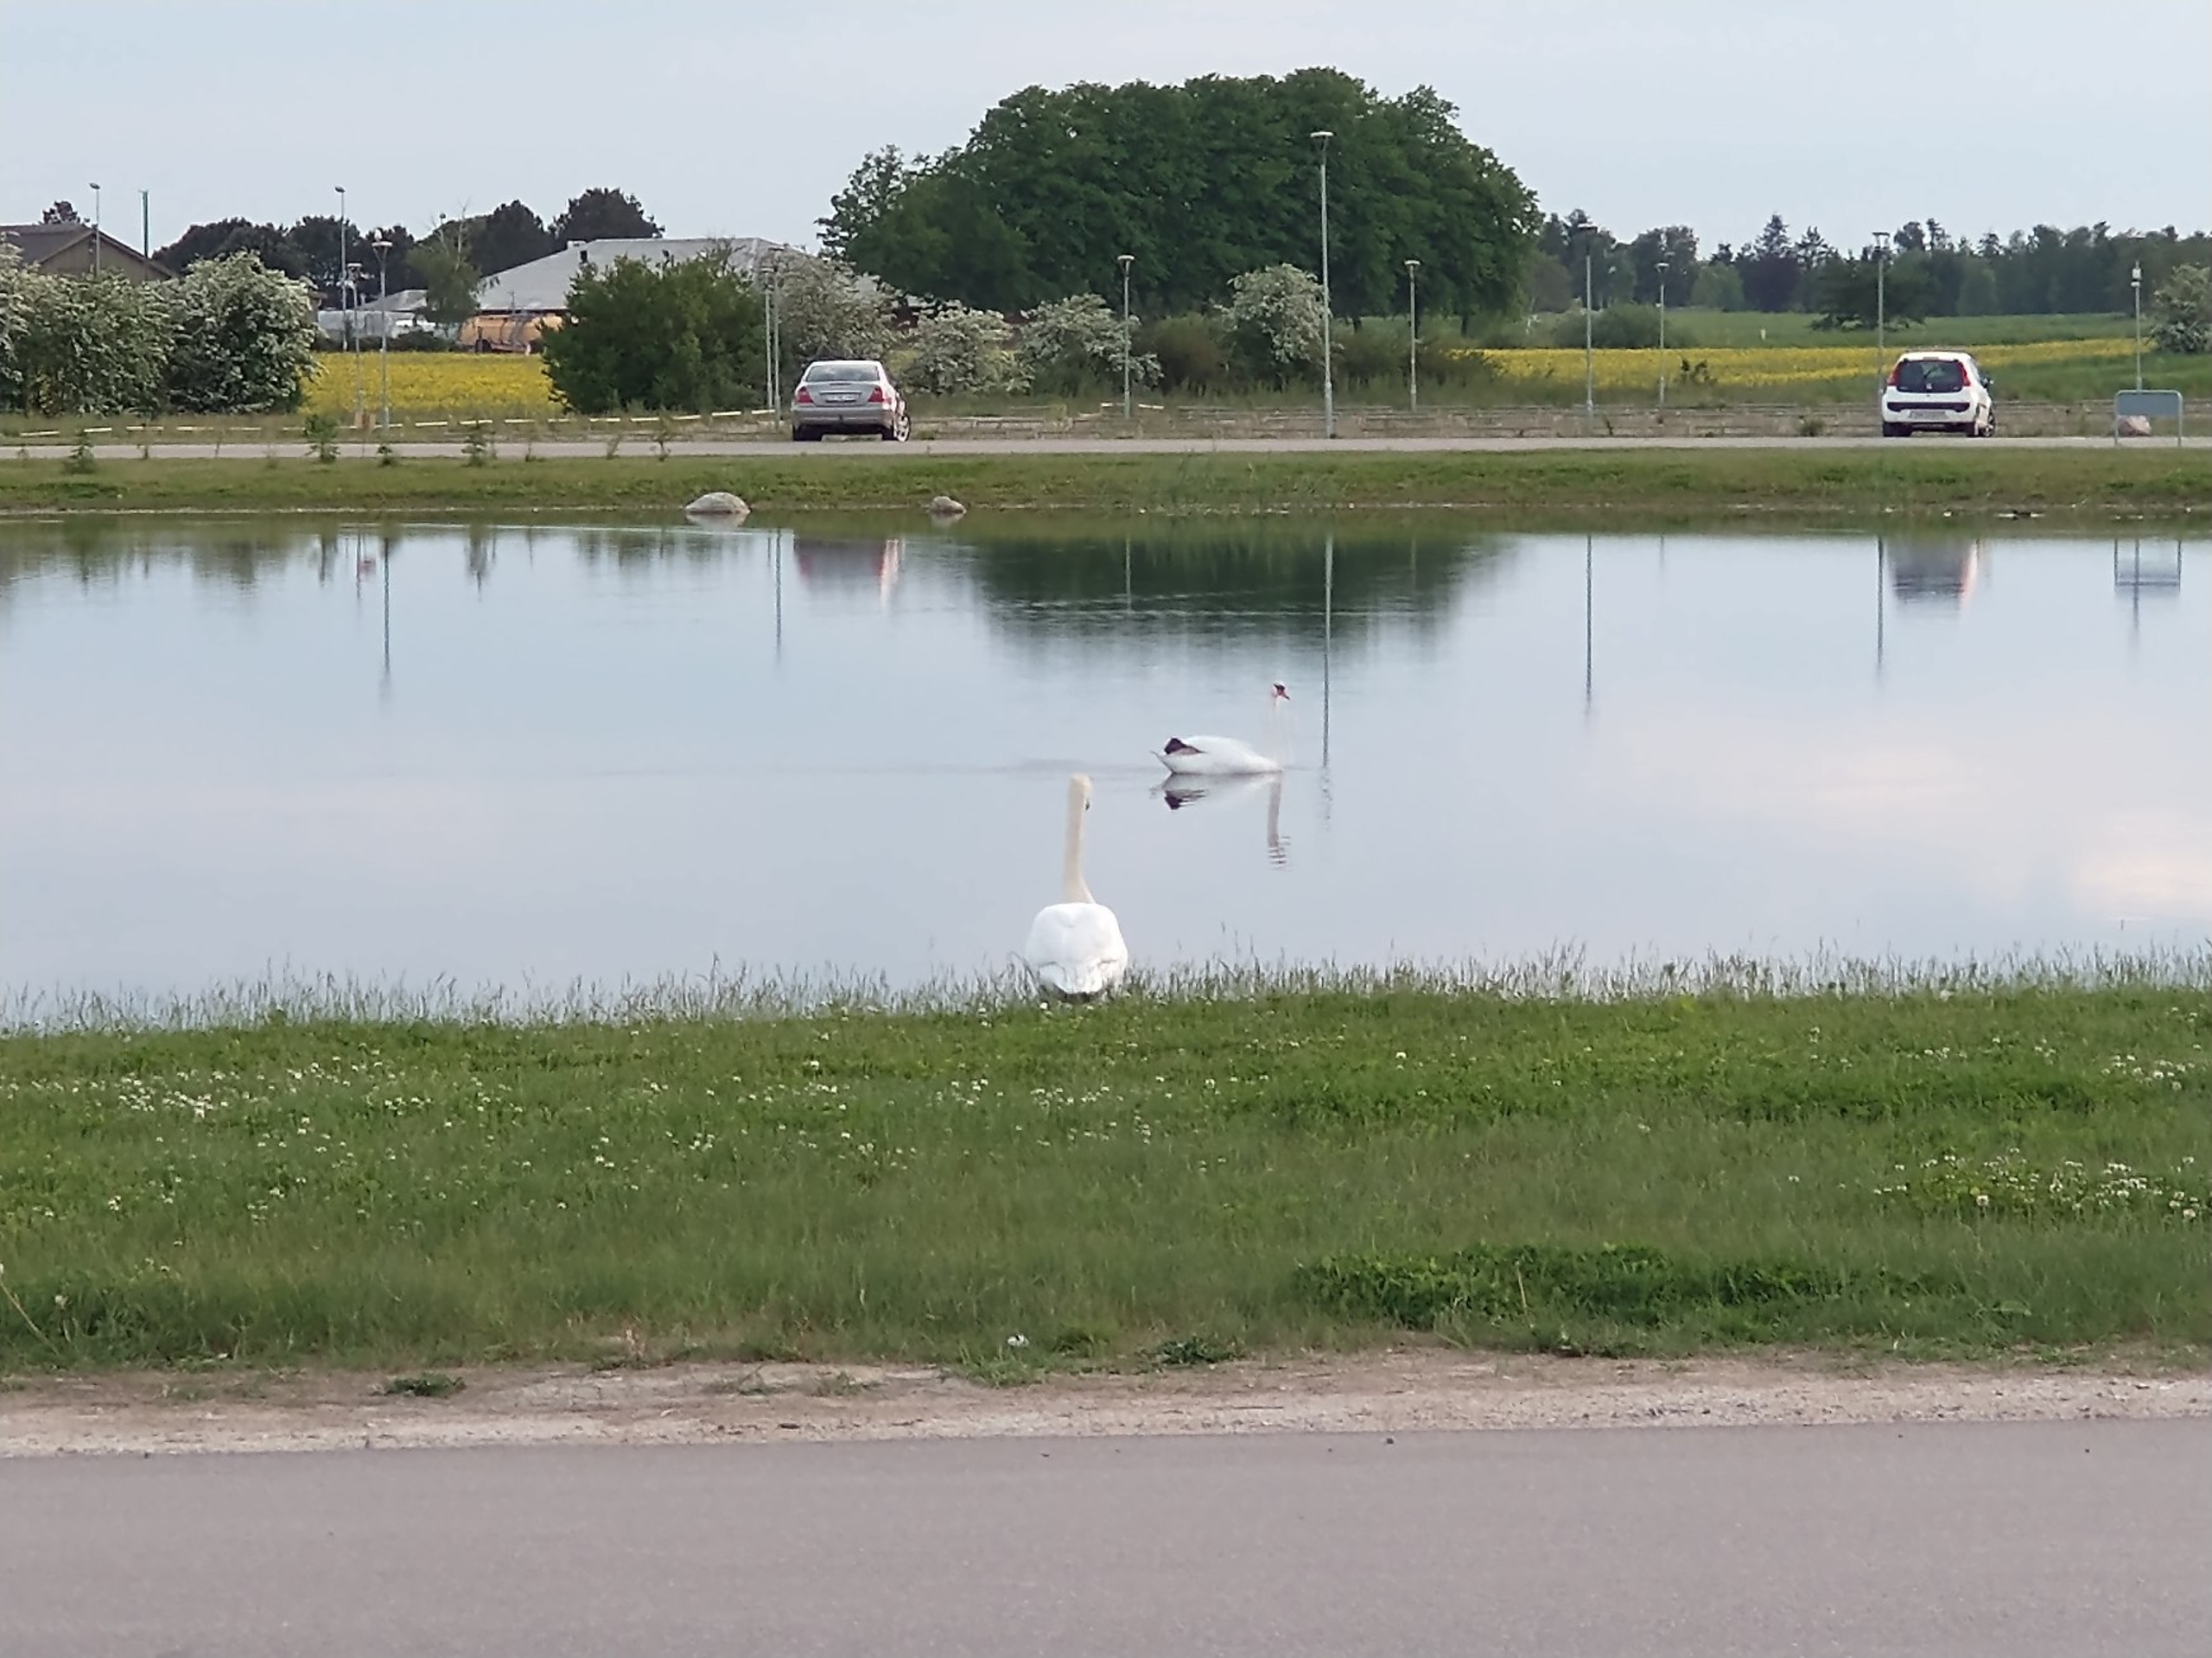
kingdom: Animalia
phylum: Chordata
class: Aves
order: Anseriformes
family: Anatidae
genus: Cygnus
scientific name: Cygnus olor
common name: Knopsvane
